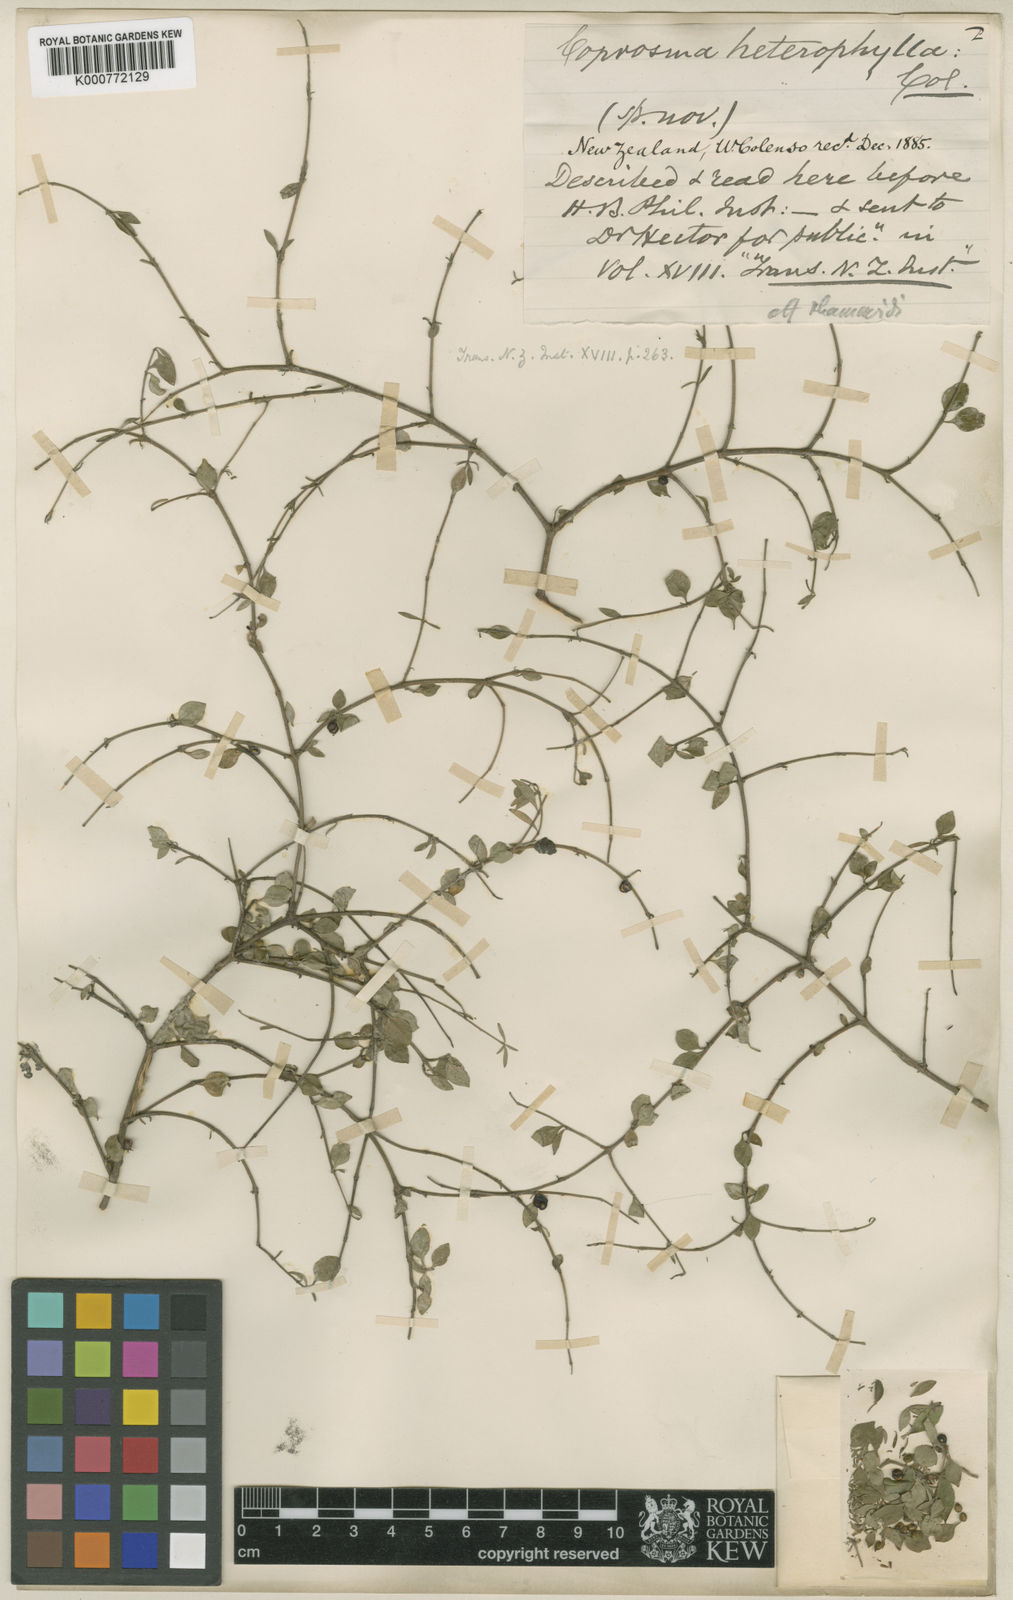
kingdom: Plantae
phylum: Tracheophyta
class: Magnoliopsida
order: Gentianales
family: Rubiaceae
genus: Coprosma
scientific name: Coprosma rhamnoides
